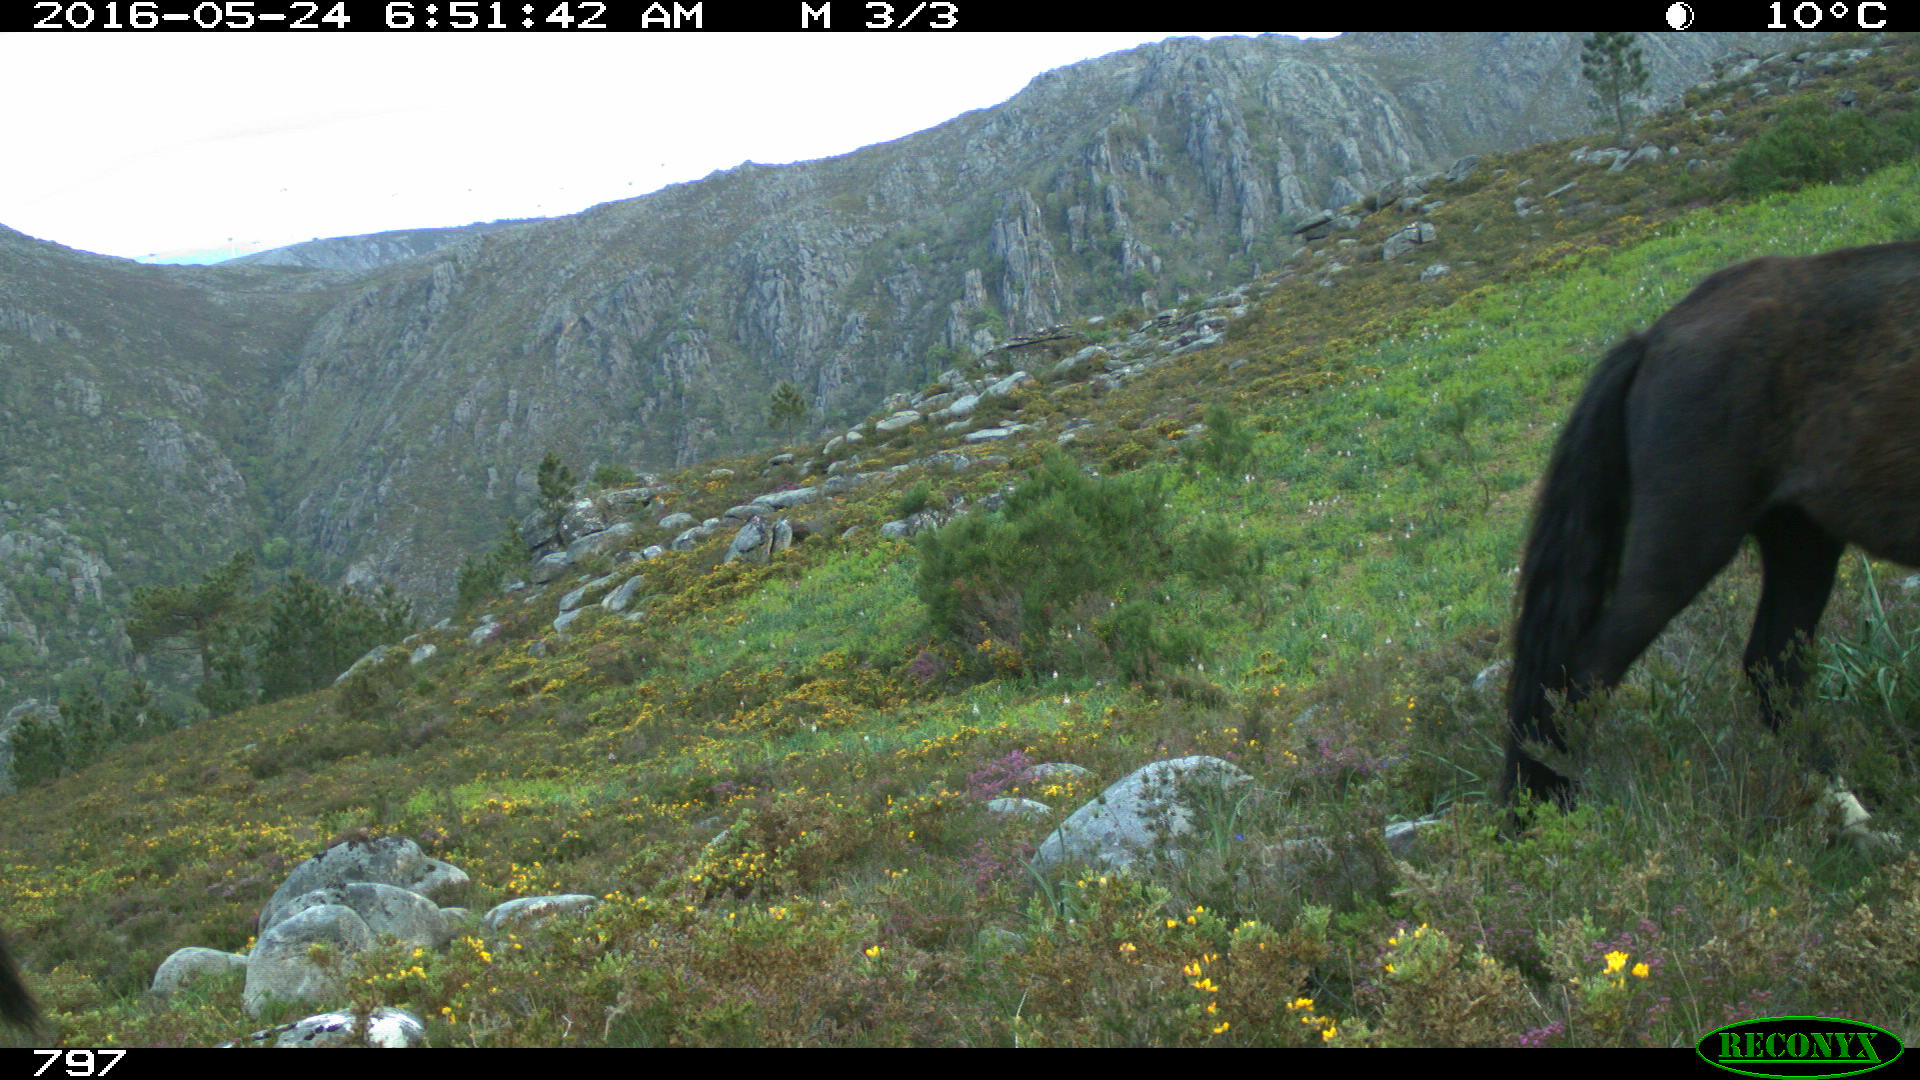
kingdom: Animalia
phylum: Chordata
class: Mammalia
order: Perissodactyla
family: Equidae
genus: Equus
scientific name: Equus caballus
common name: Horse
